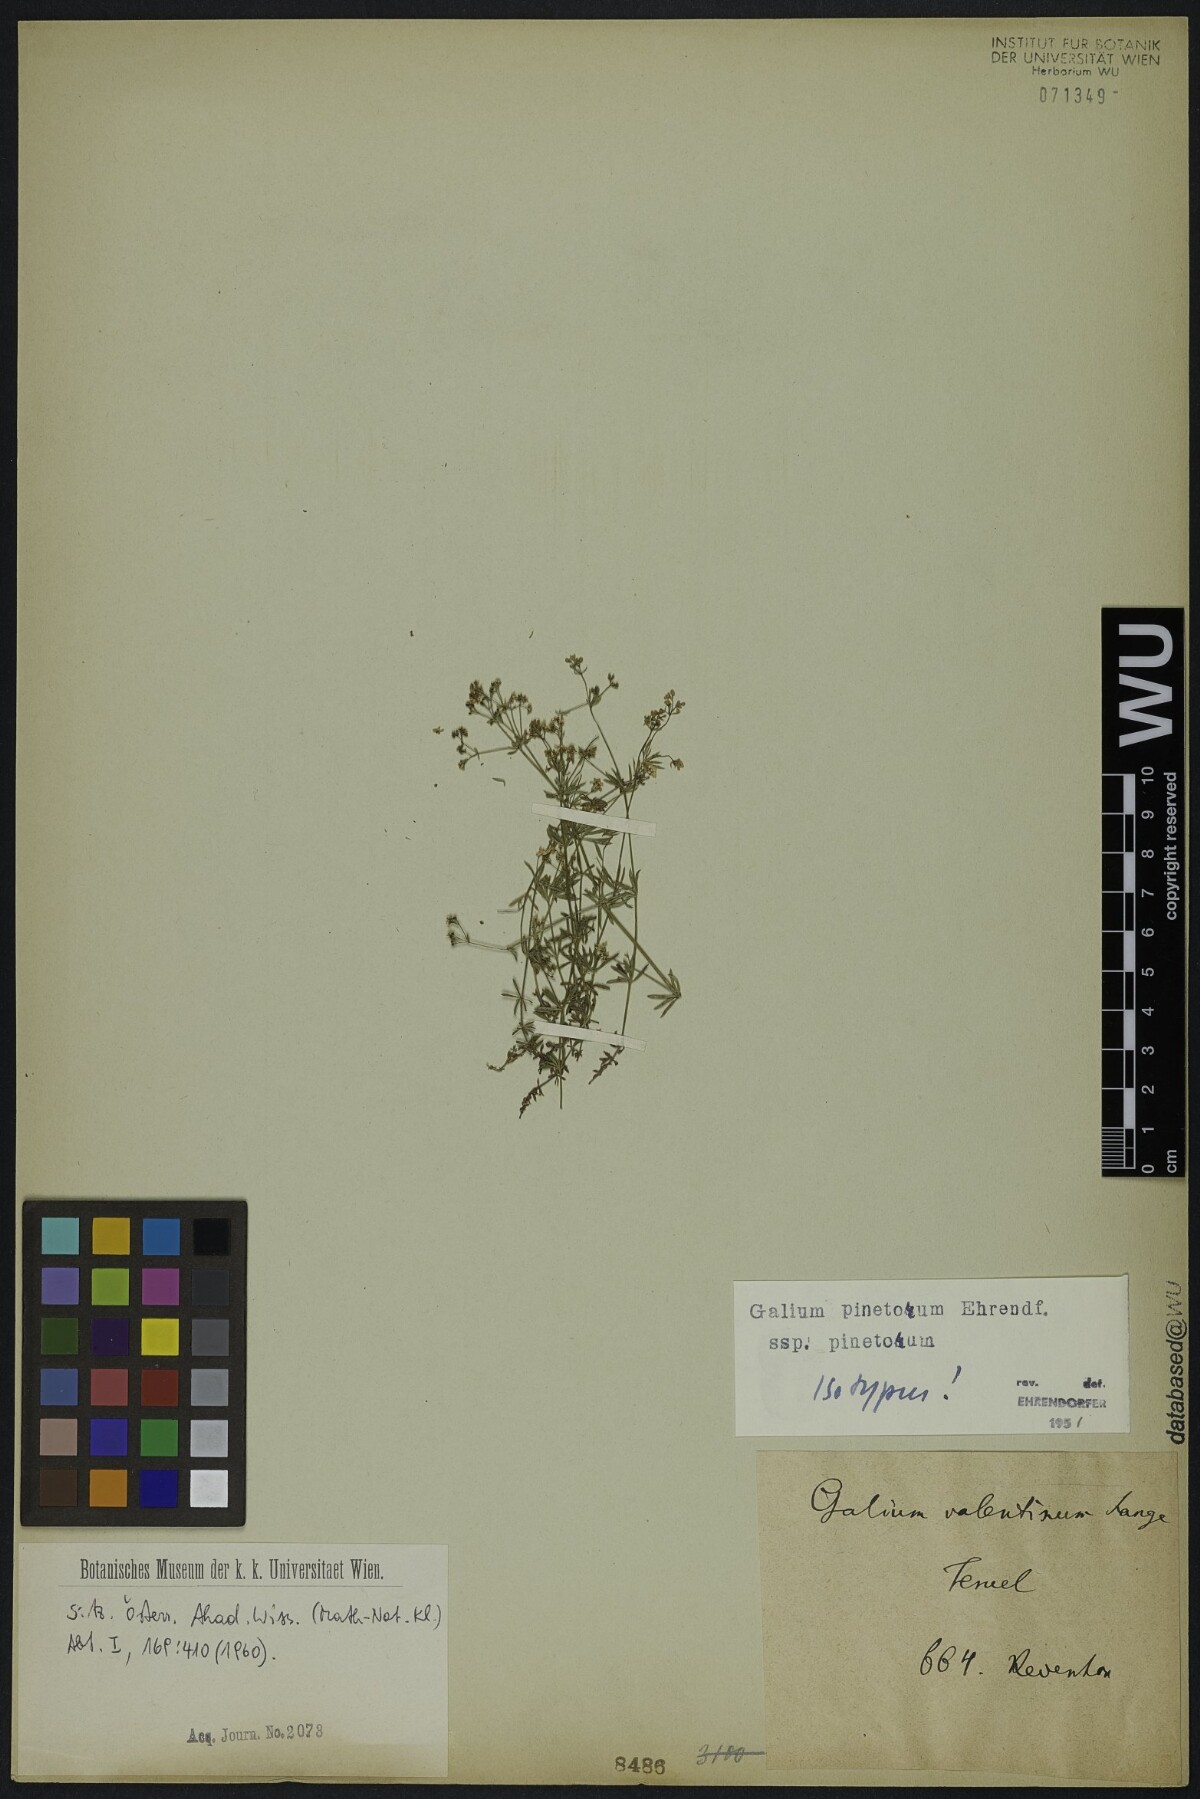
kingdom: Plantae
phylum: Tracheophyta
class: Magnoliopsida
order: Gentianales
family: Rubiaceae
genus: Galium
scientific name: Galium estebanii
